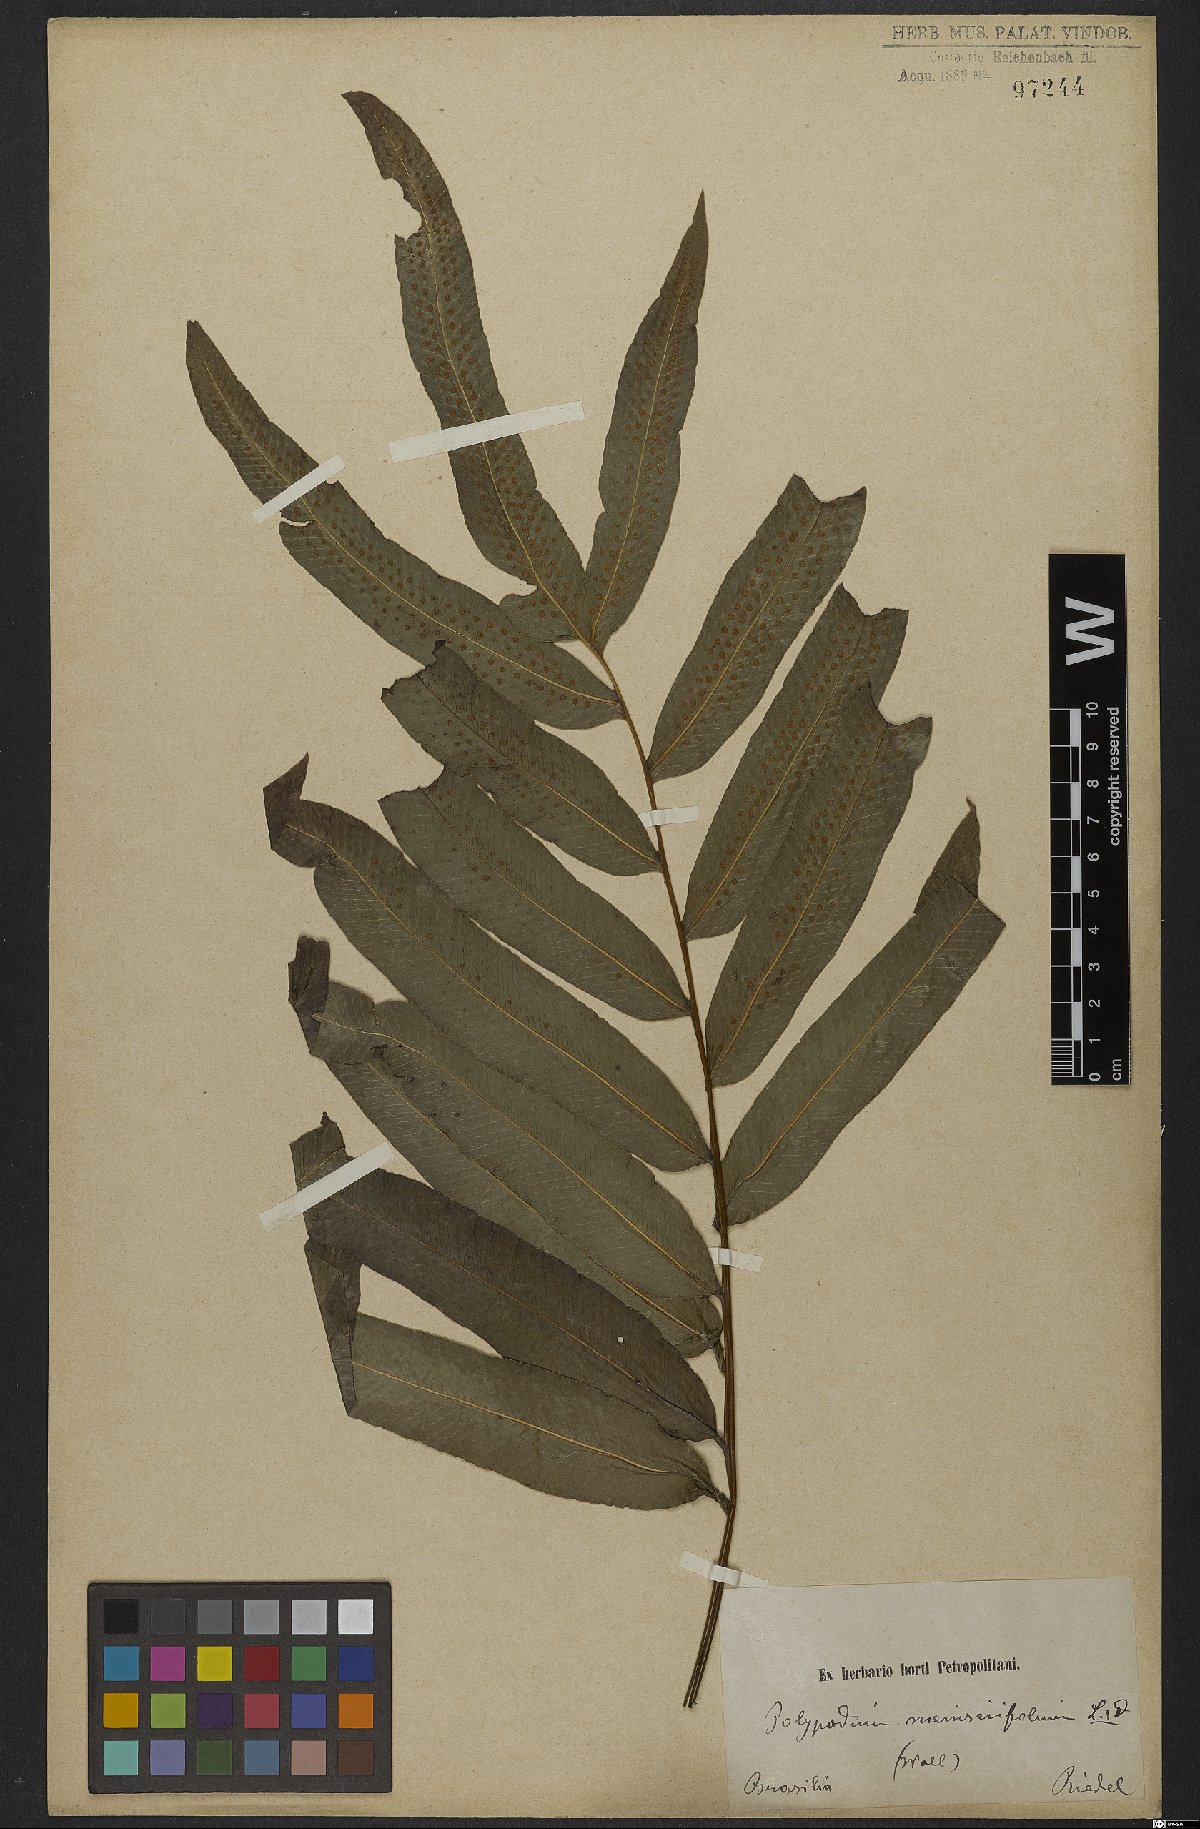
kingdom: Plantae
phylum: Tracheophyta
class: Polypodiopsida
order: Polypodiales
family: Polypodiaceae
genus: Serpocaulon
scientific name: Serpocaulon triseriale
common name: Angle-vein fern
